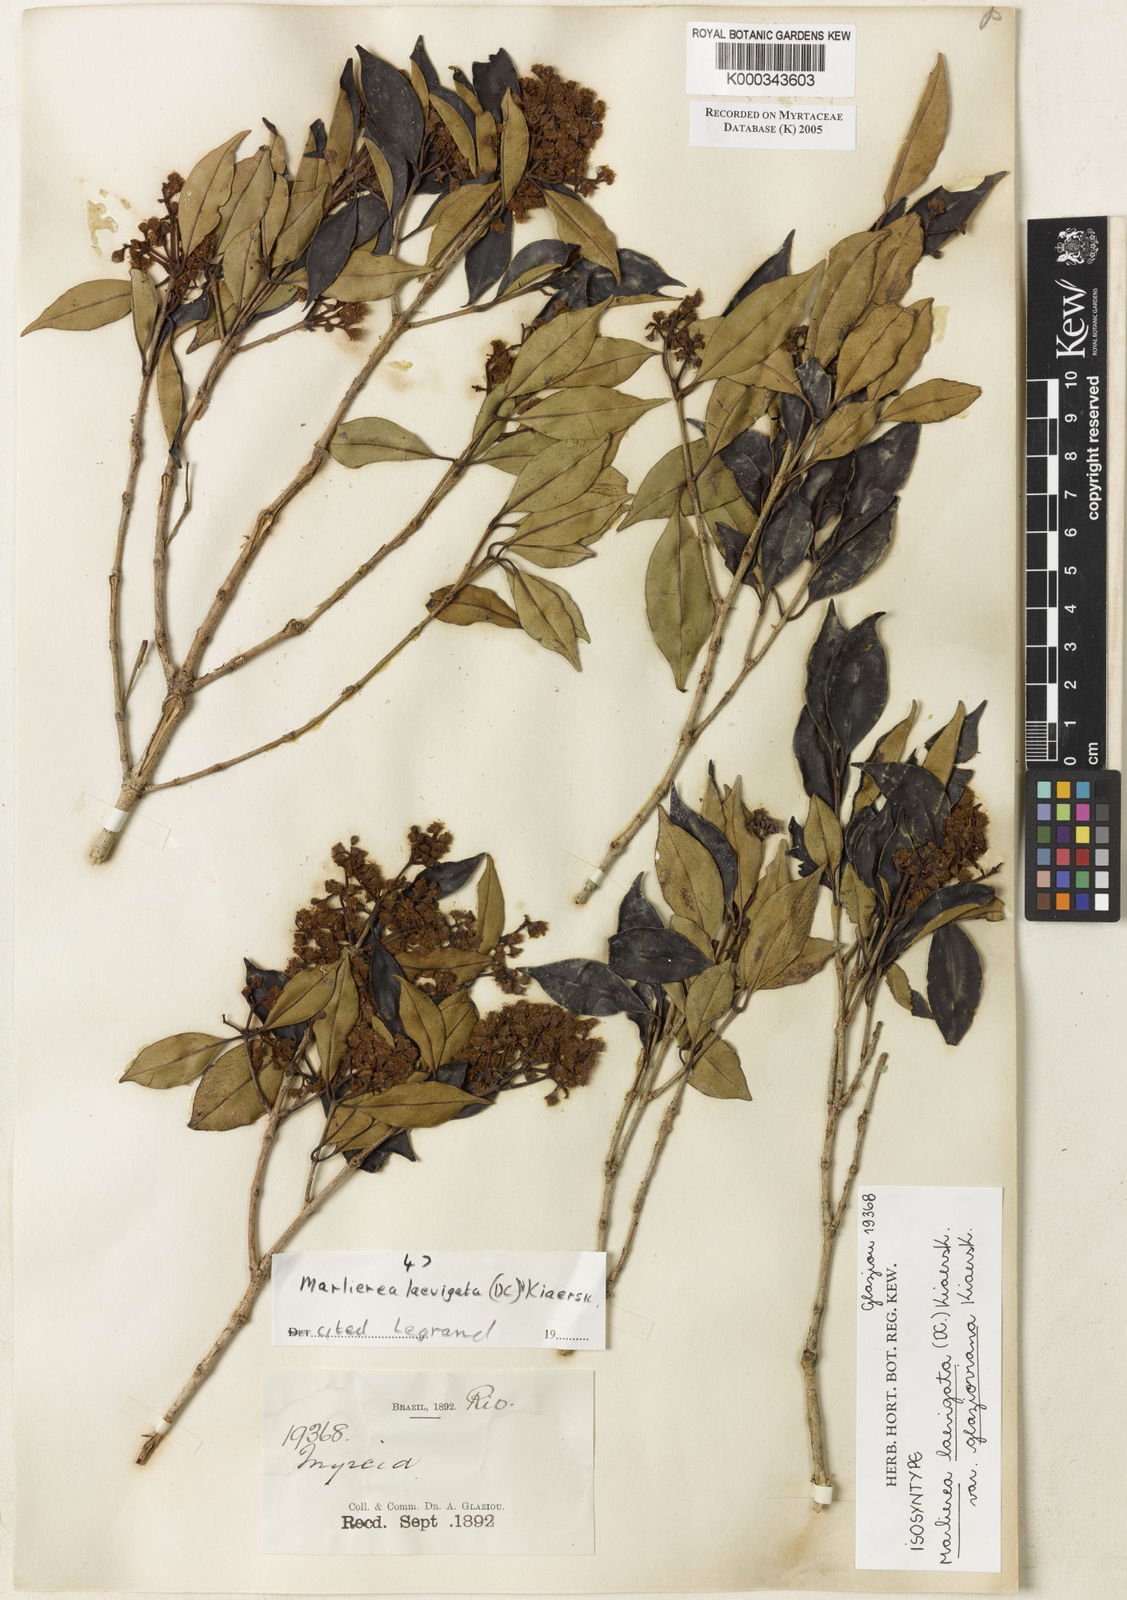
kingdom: Plantae
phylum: Tracheophyta
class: Magnoliopsida
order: Myrtales
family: Myrtaceae
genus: Myrcia
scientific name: Myrcia multipunctata
